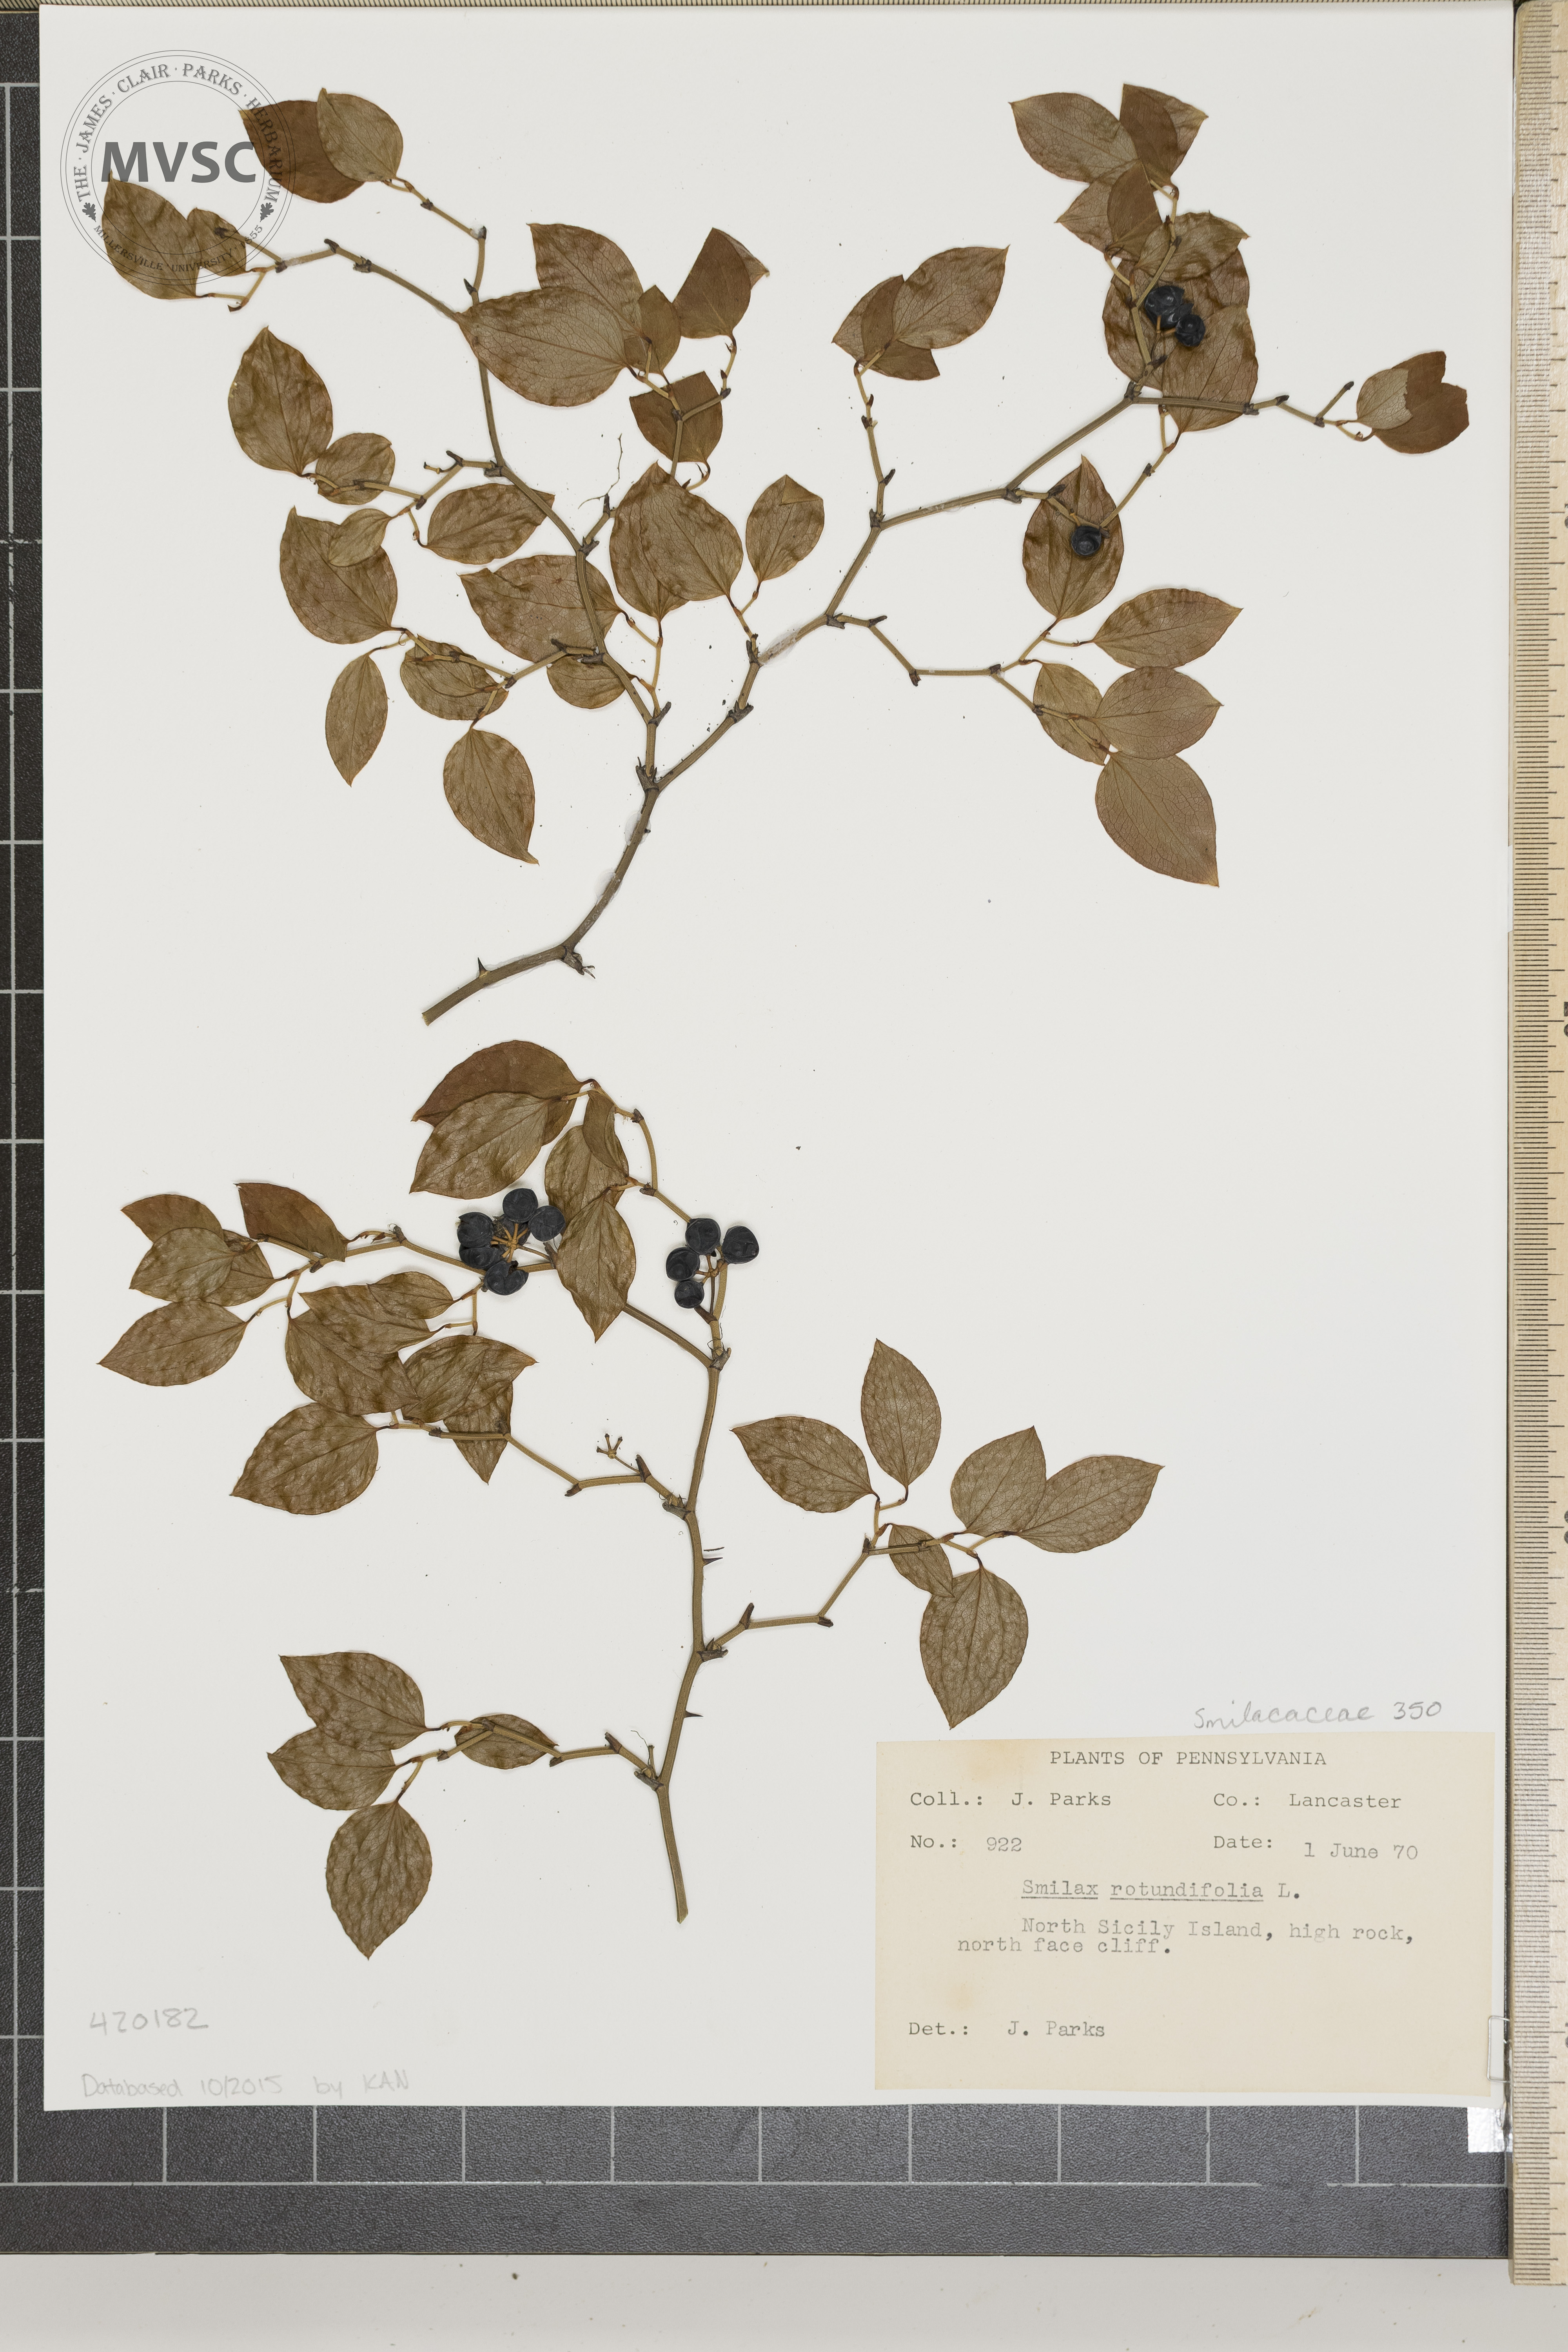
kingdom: Plantae
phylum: Tracheophyta
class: Liliopsida
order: Liliales
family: Smilacaceae
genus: Smilax
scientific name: Smilax rotundifolia
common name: common greenbrier
